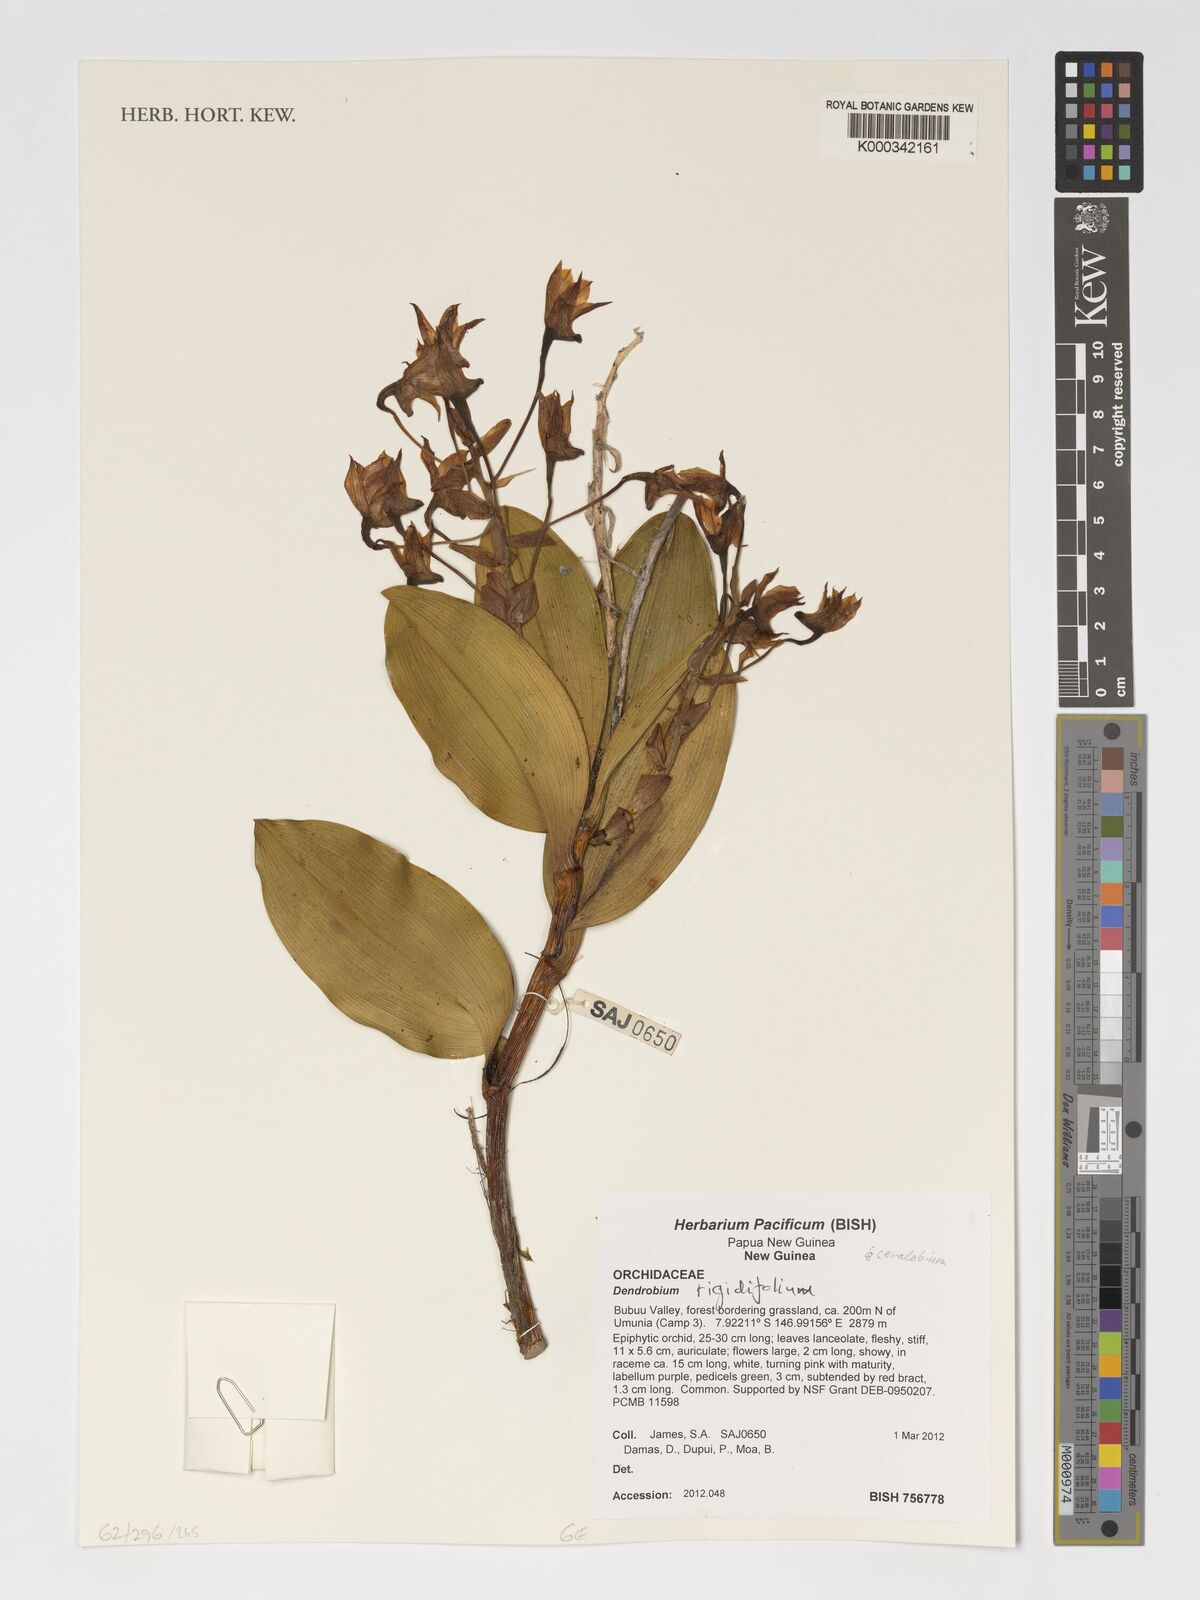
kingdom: Plantae
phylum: Tracheophyta
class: Liliopsida
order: Asparagales
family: Orchidaceae
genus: Dendrobium
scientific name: Dendrobium rigidifolium
